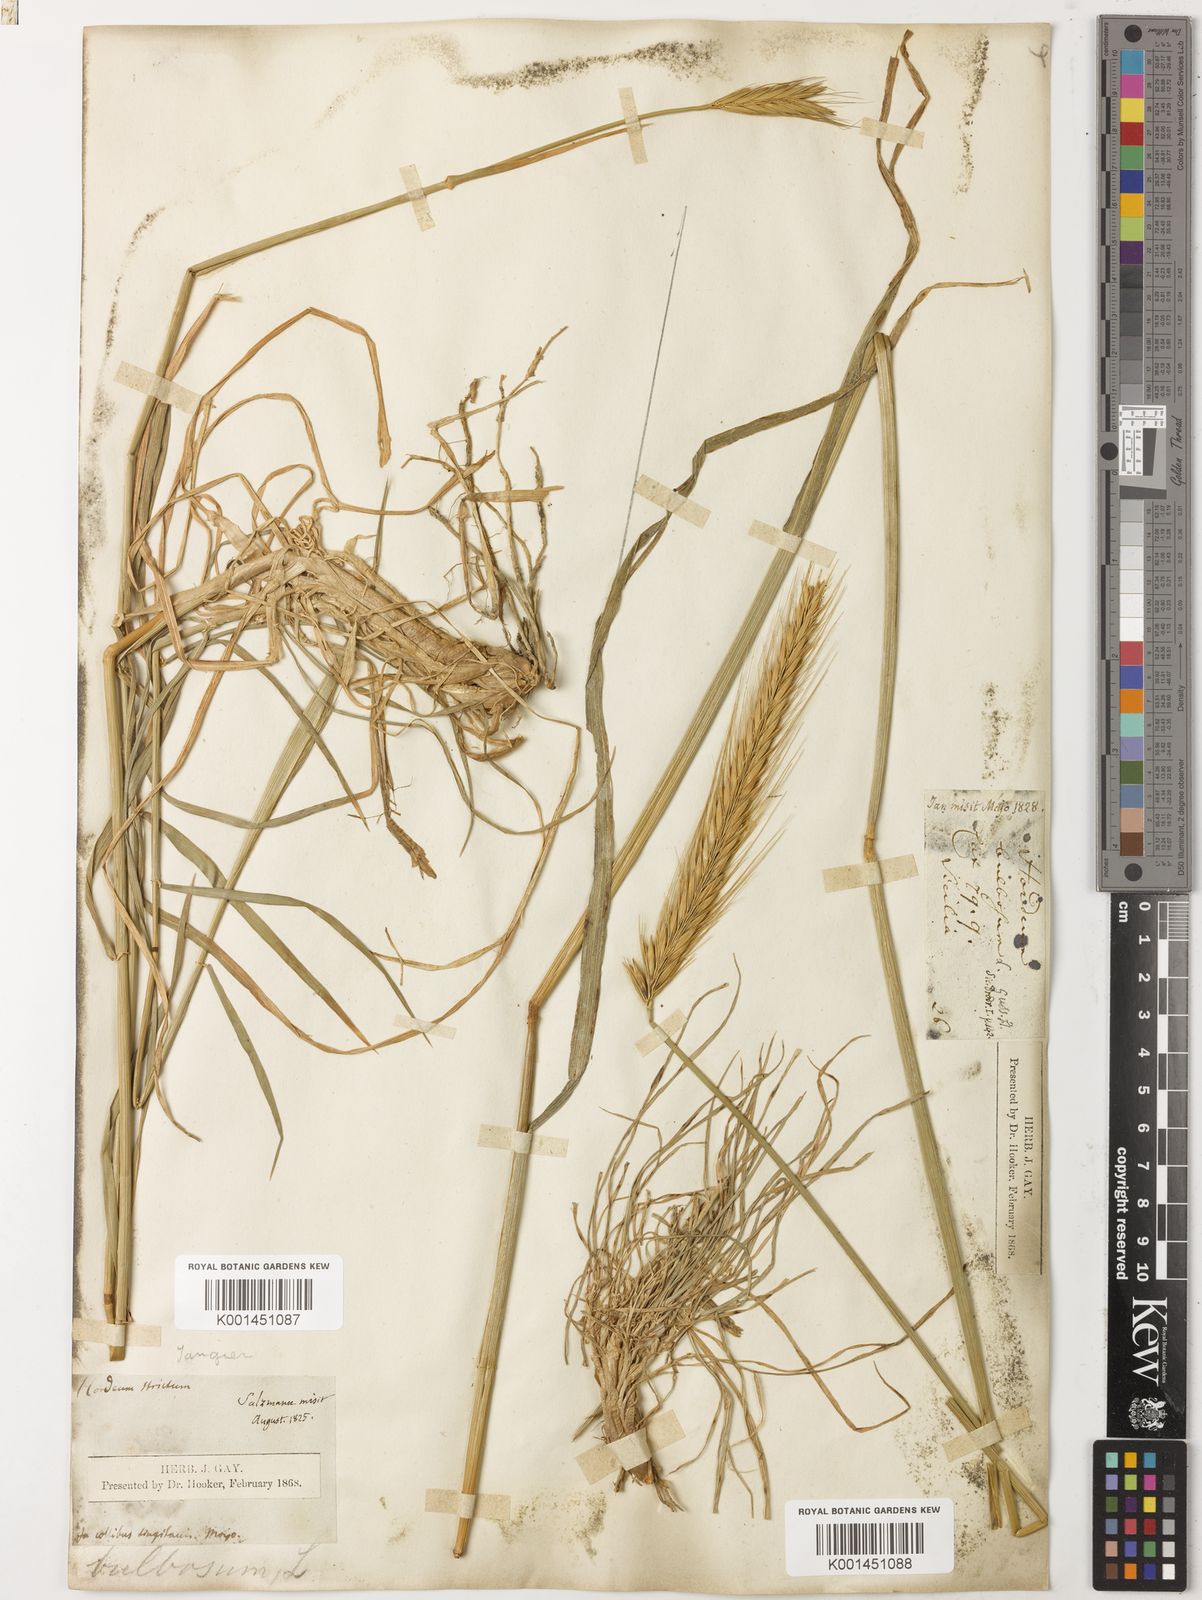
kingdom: Plantae
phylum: Tracheophyta
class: Liliopsida
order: Poales
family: Poaceae
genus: Hordeum
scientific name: Hordeum bulbosum
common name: Bulbous barley
